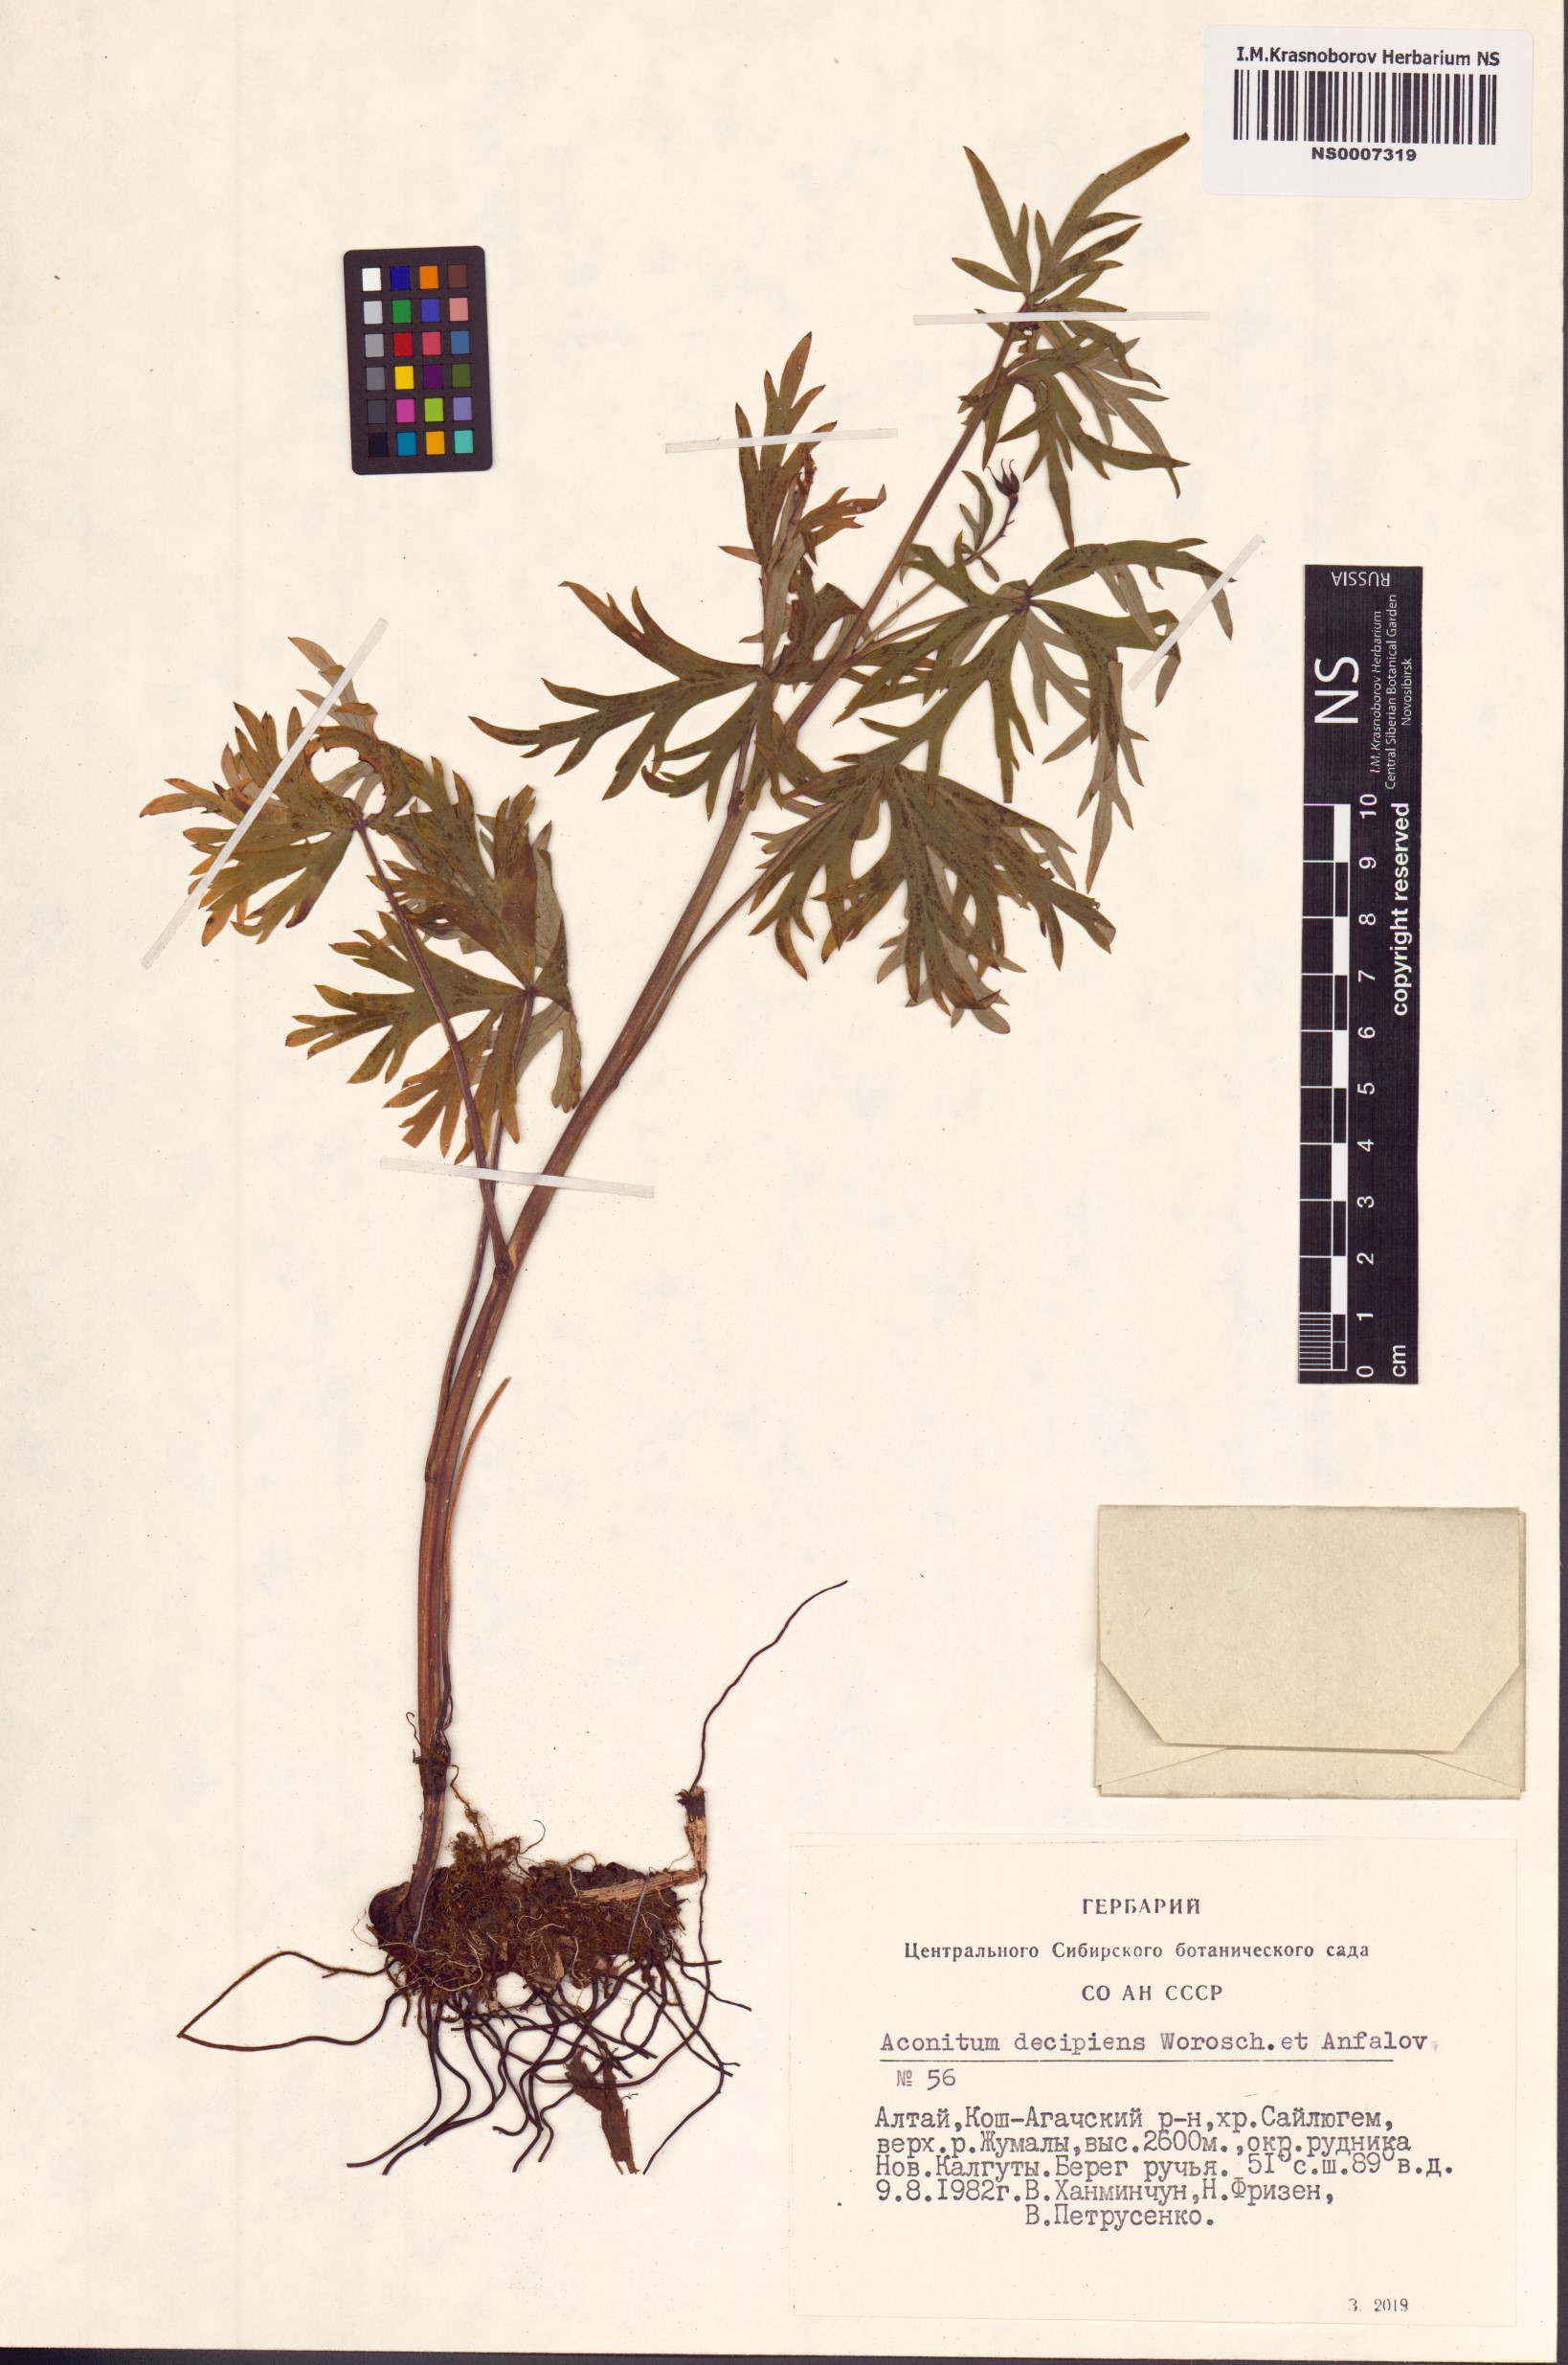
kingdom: Plantae
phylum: Tracheophyta
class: Magnoliopsida
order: Ranunculales
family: Ranunculaceae
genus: Aconitum
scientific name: Aconitum decipiens
